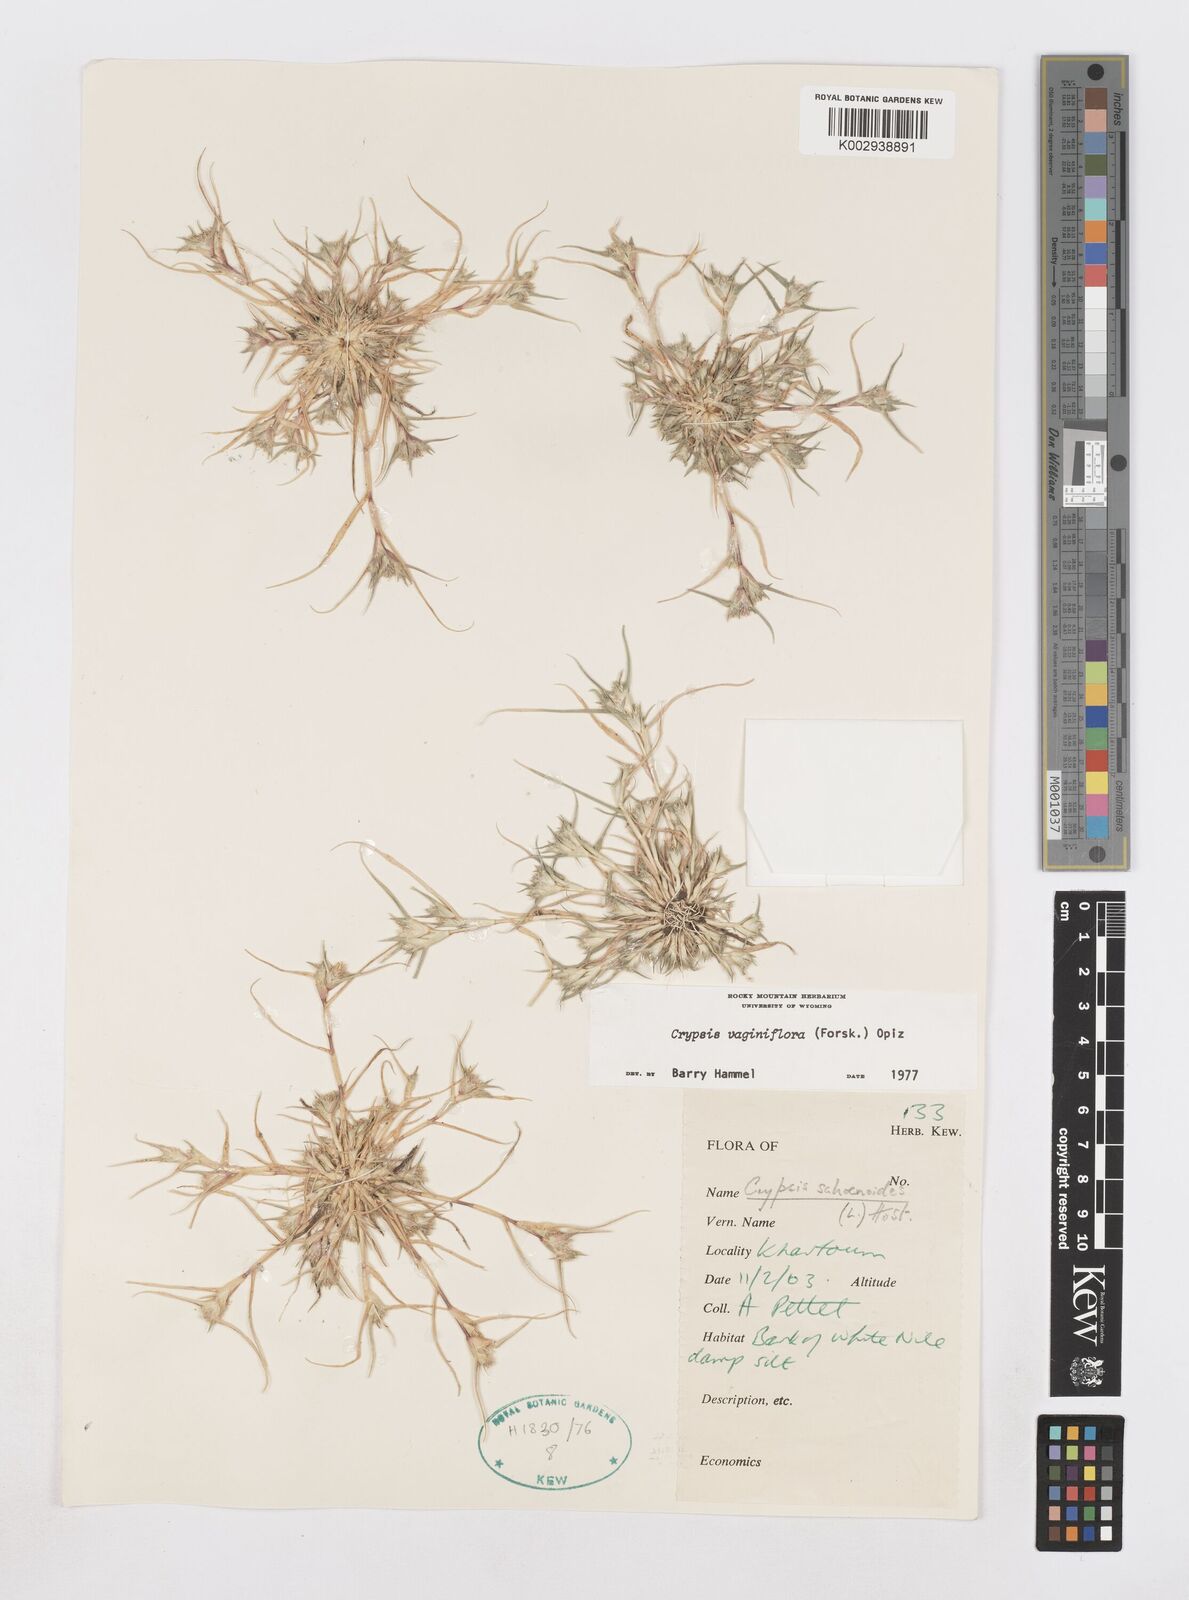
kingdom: Plantae
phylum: Tracheophyta
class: Liliopsida
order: Poales
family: Poaceae
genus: Sporobolus
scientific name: Sporobolus niliacus
